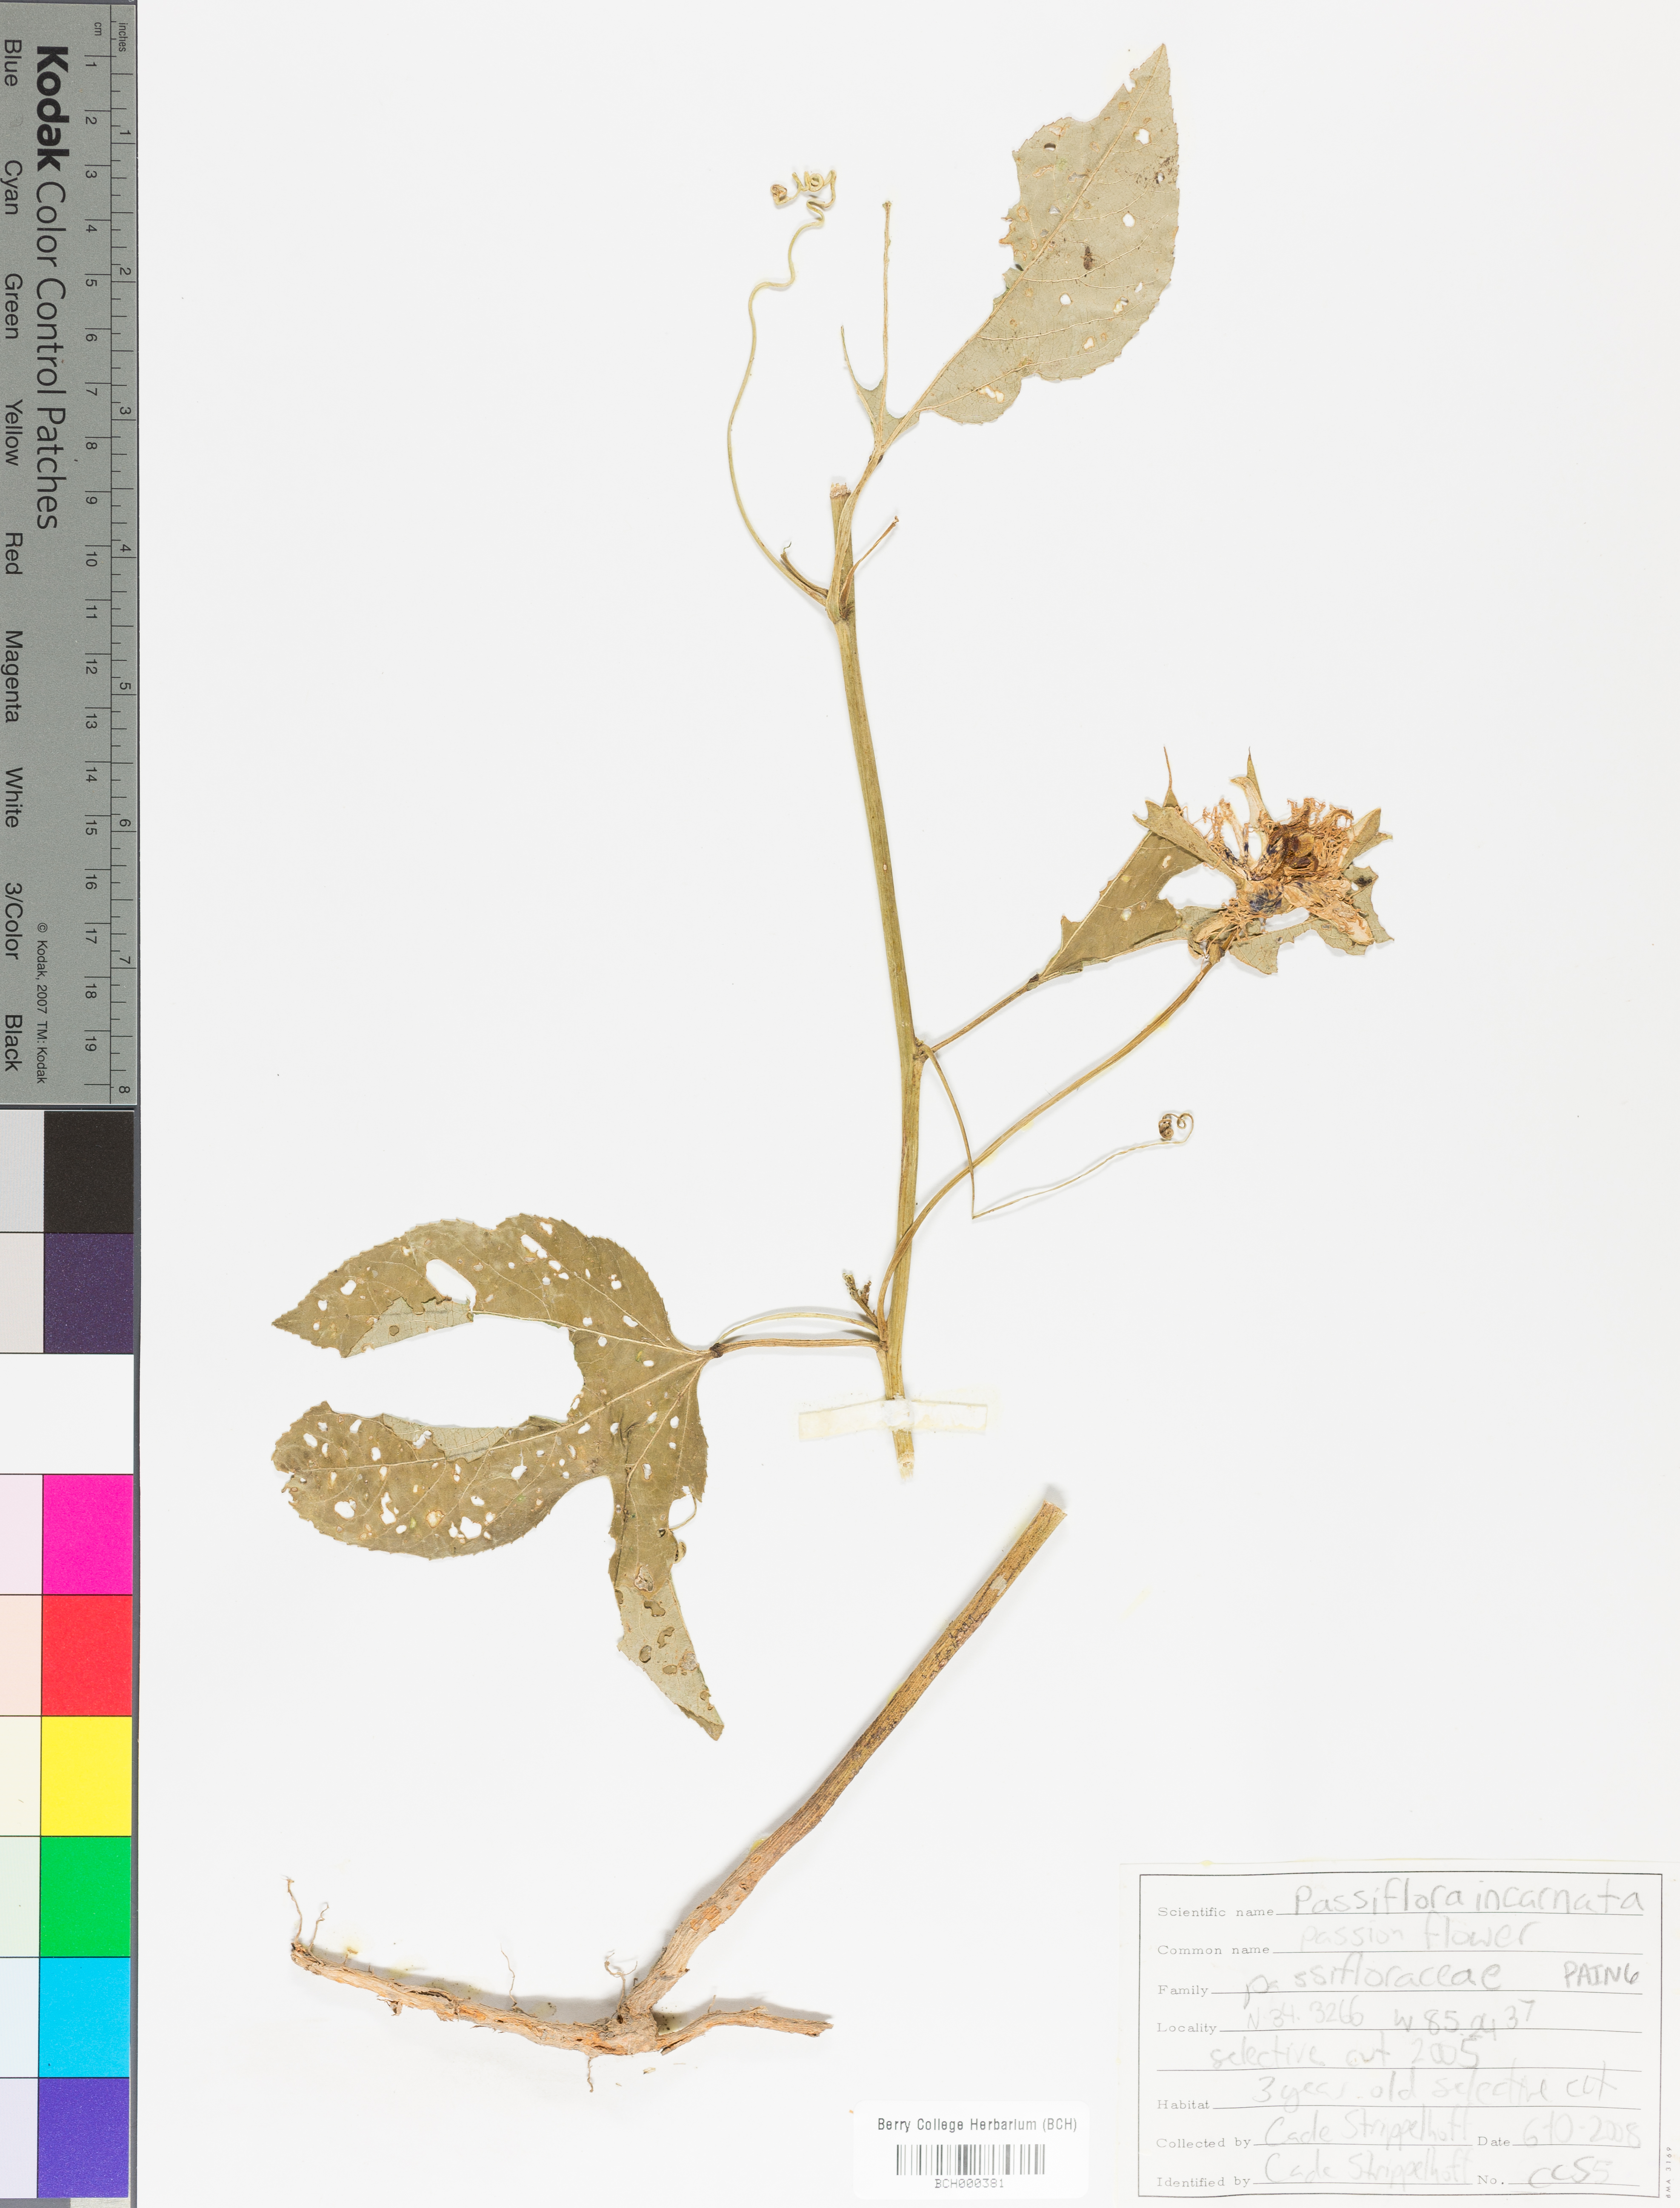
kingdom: Plantae
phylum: Tracheophyta
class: Magnoliopsida
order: Malpighiales
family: Passifloraceae
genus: Passiflora
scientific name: Passiflora incarnata
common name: Apricot-vine
